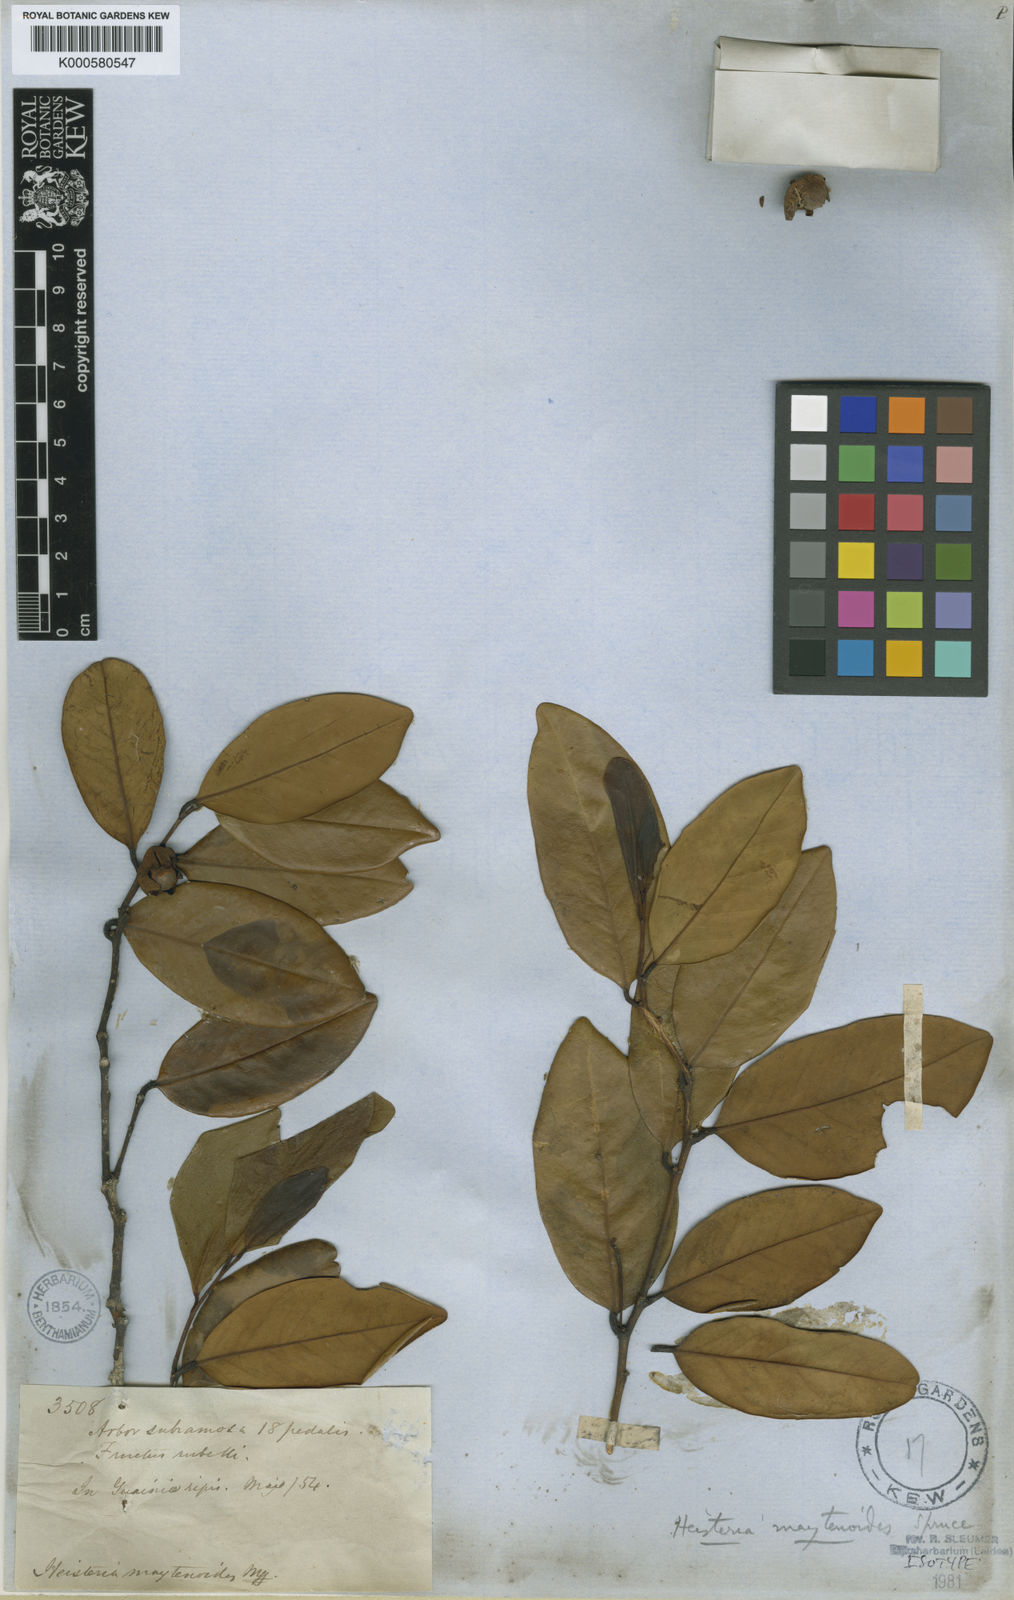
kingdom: Plantae
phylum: Tracheophyta
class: Magnoliopsida
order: Santalales
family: Erythropalaceae
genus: Heisteria
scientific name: Heisteria maytenoides
